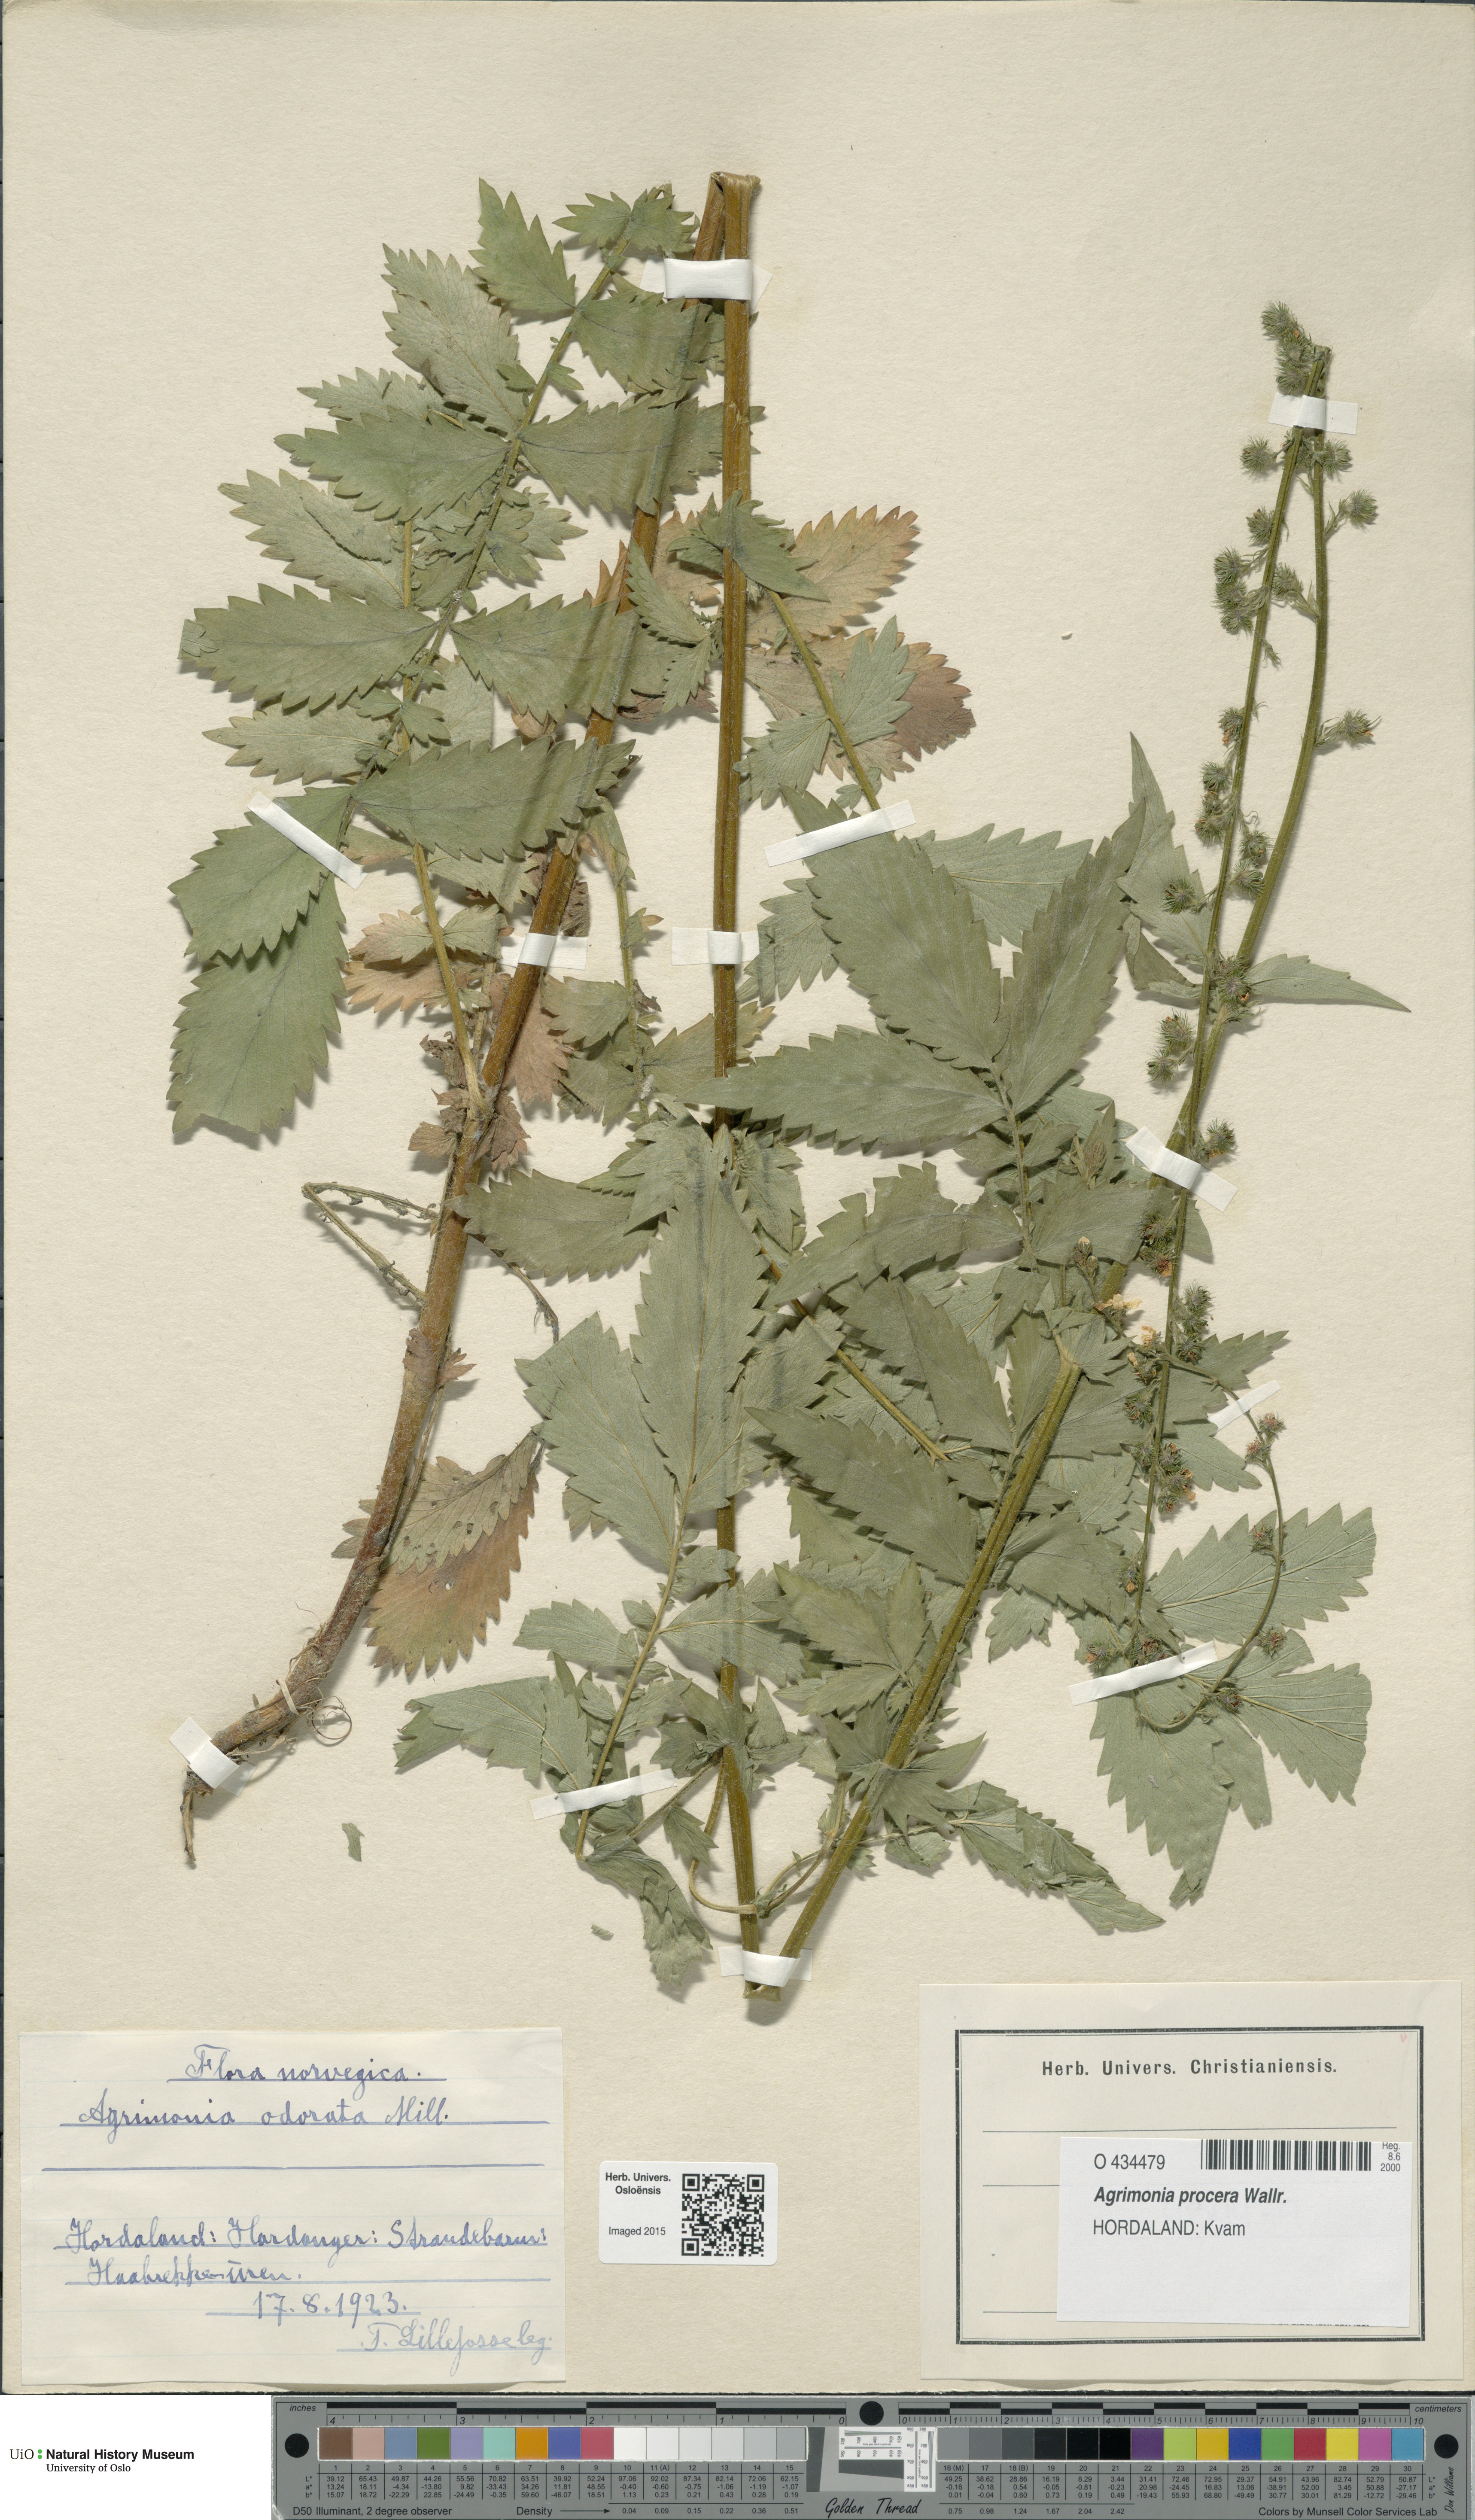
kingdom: Plantae
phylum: Tracheophyta
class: Magnoliopsida
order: Rosales
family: Rosaceae
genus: Agrimonia
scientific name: Agrimonia procera
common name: Fragrant agrimony
